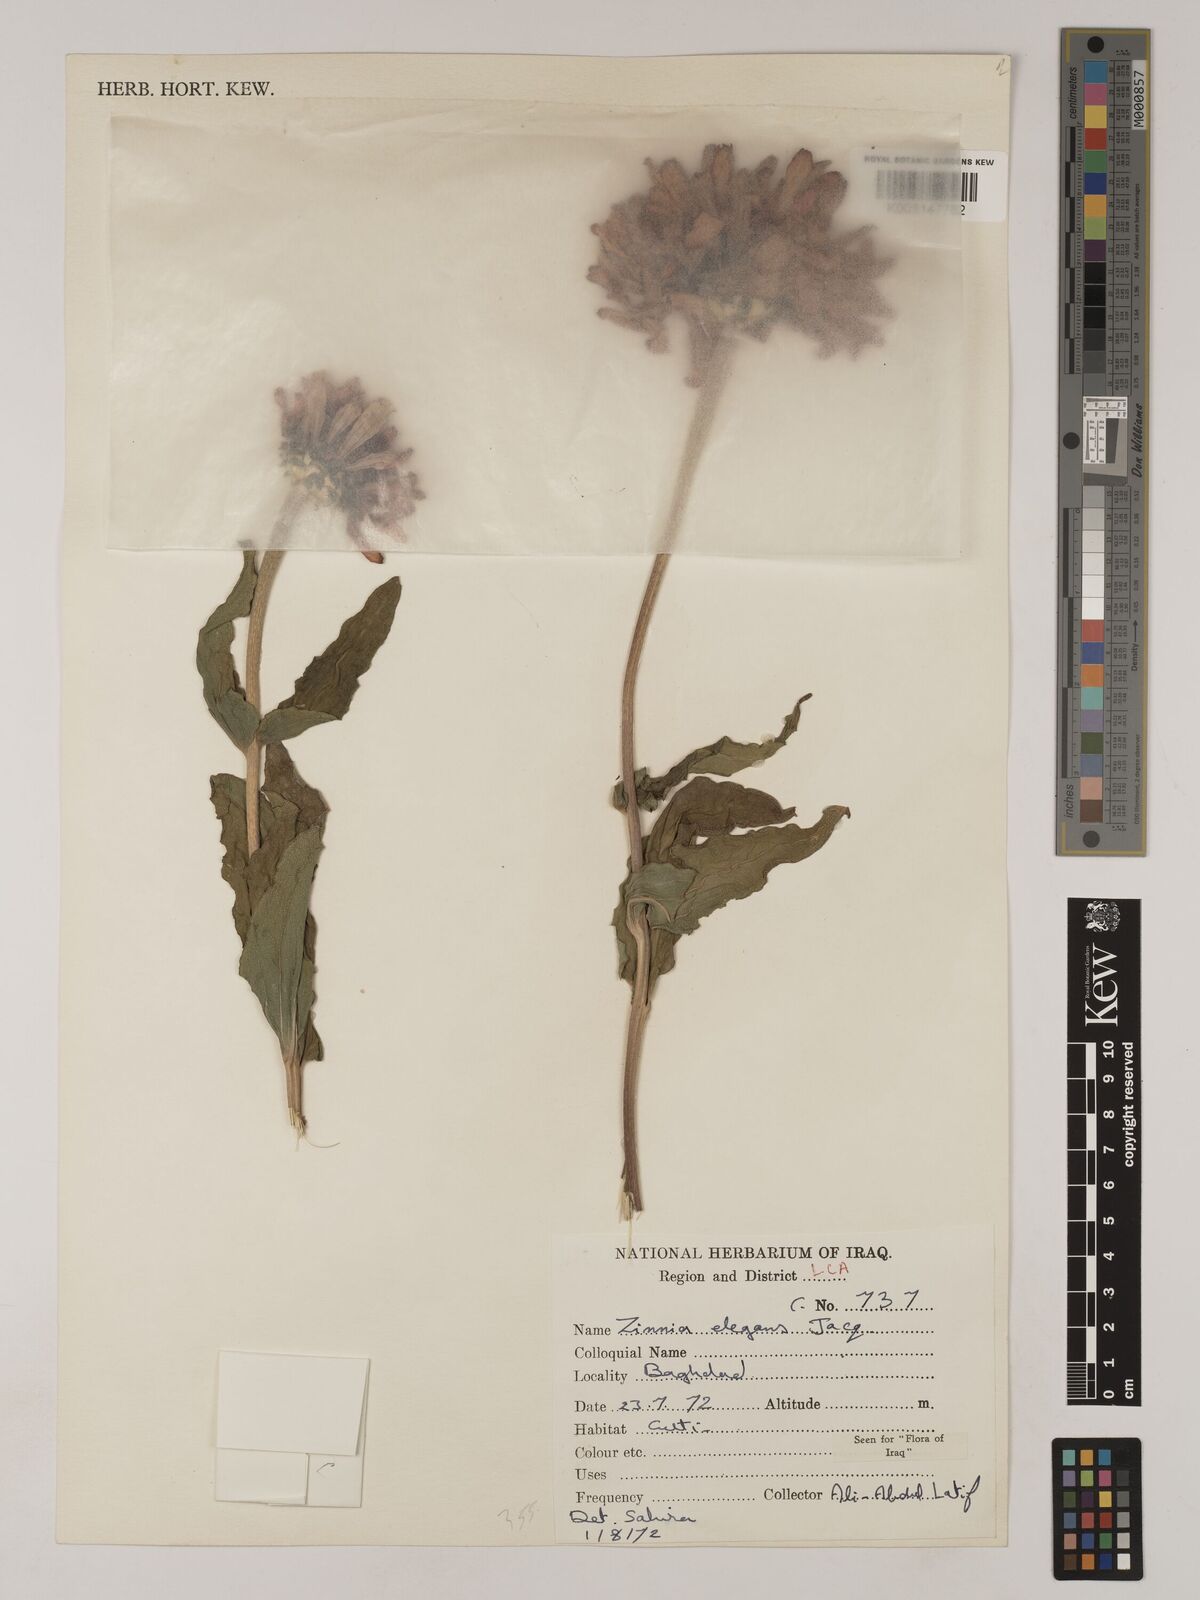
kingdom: Plantae
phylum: Tracheophyta
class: Magnoliopsida
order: Asterales
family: Asteraceae
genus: Zinnia
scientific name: Zinnia elegans
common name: Youth-and-age
